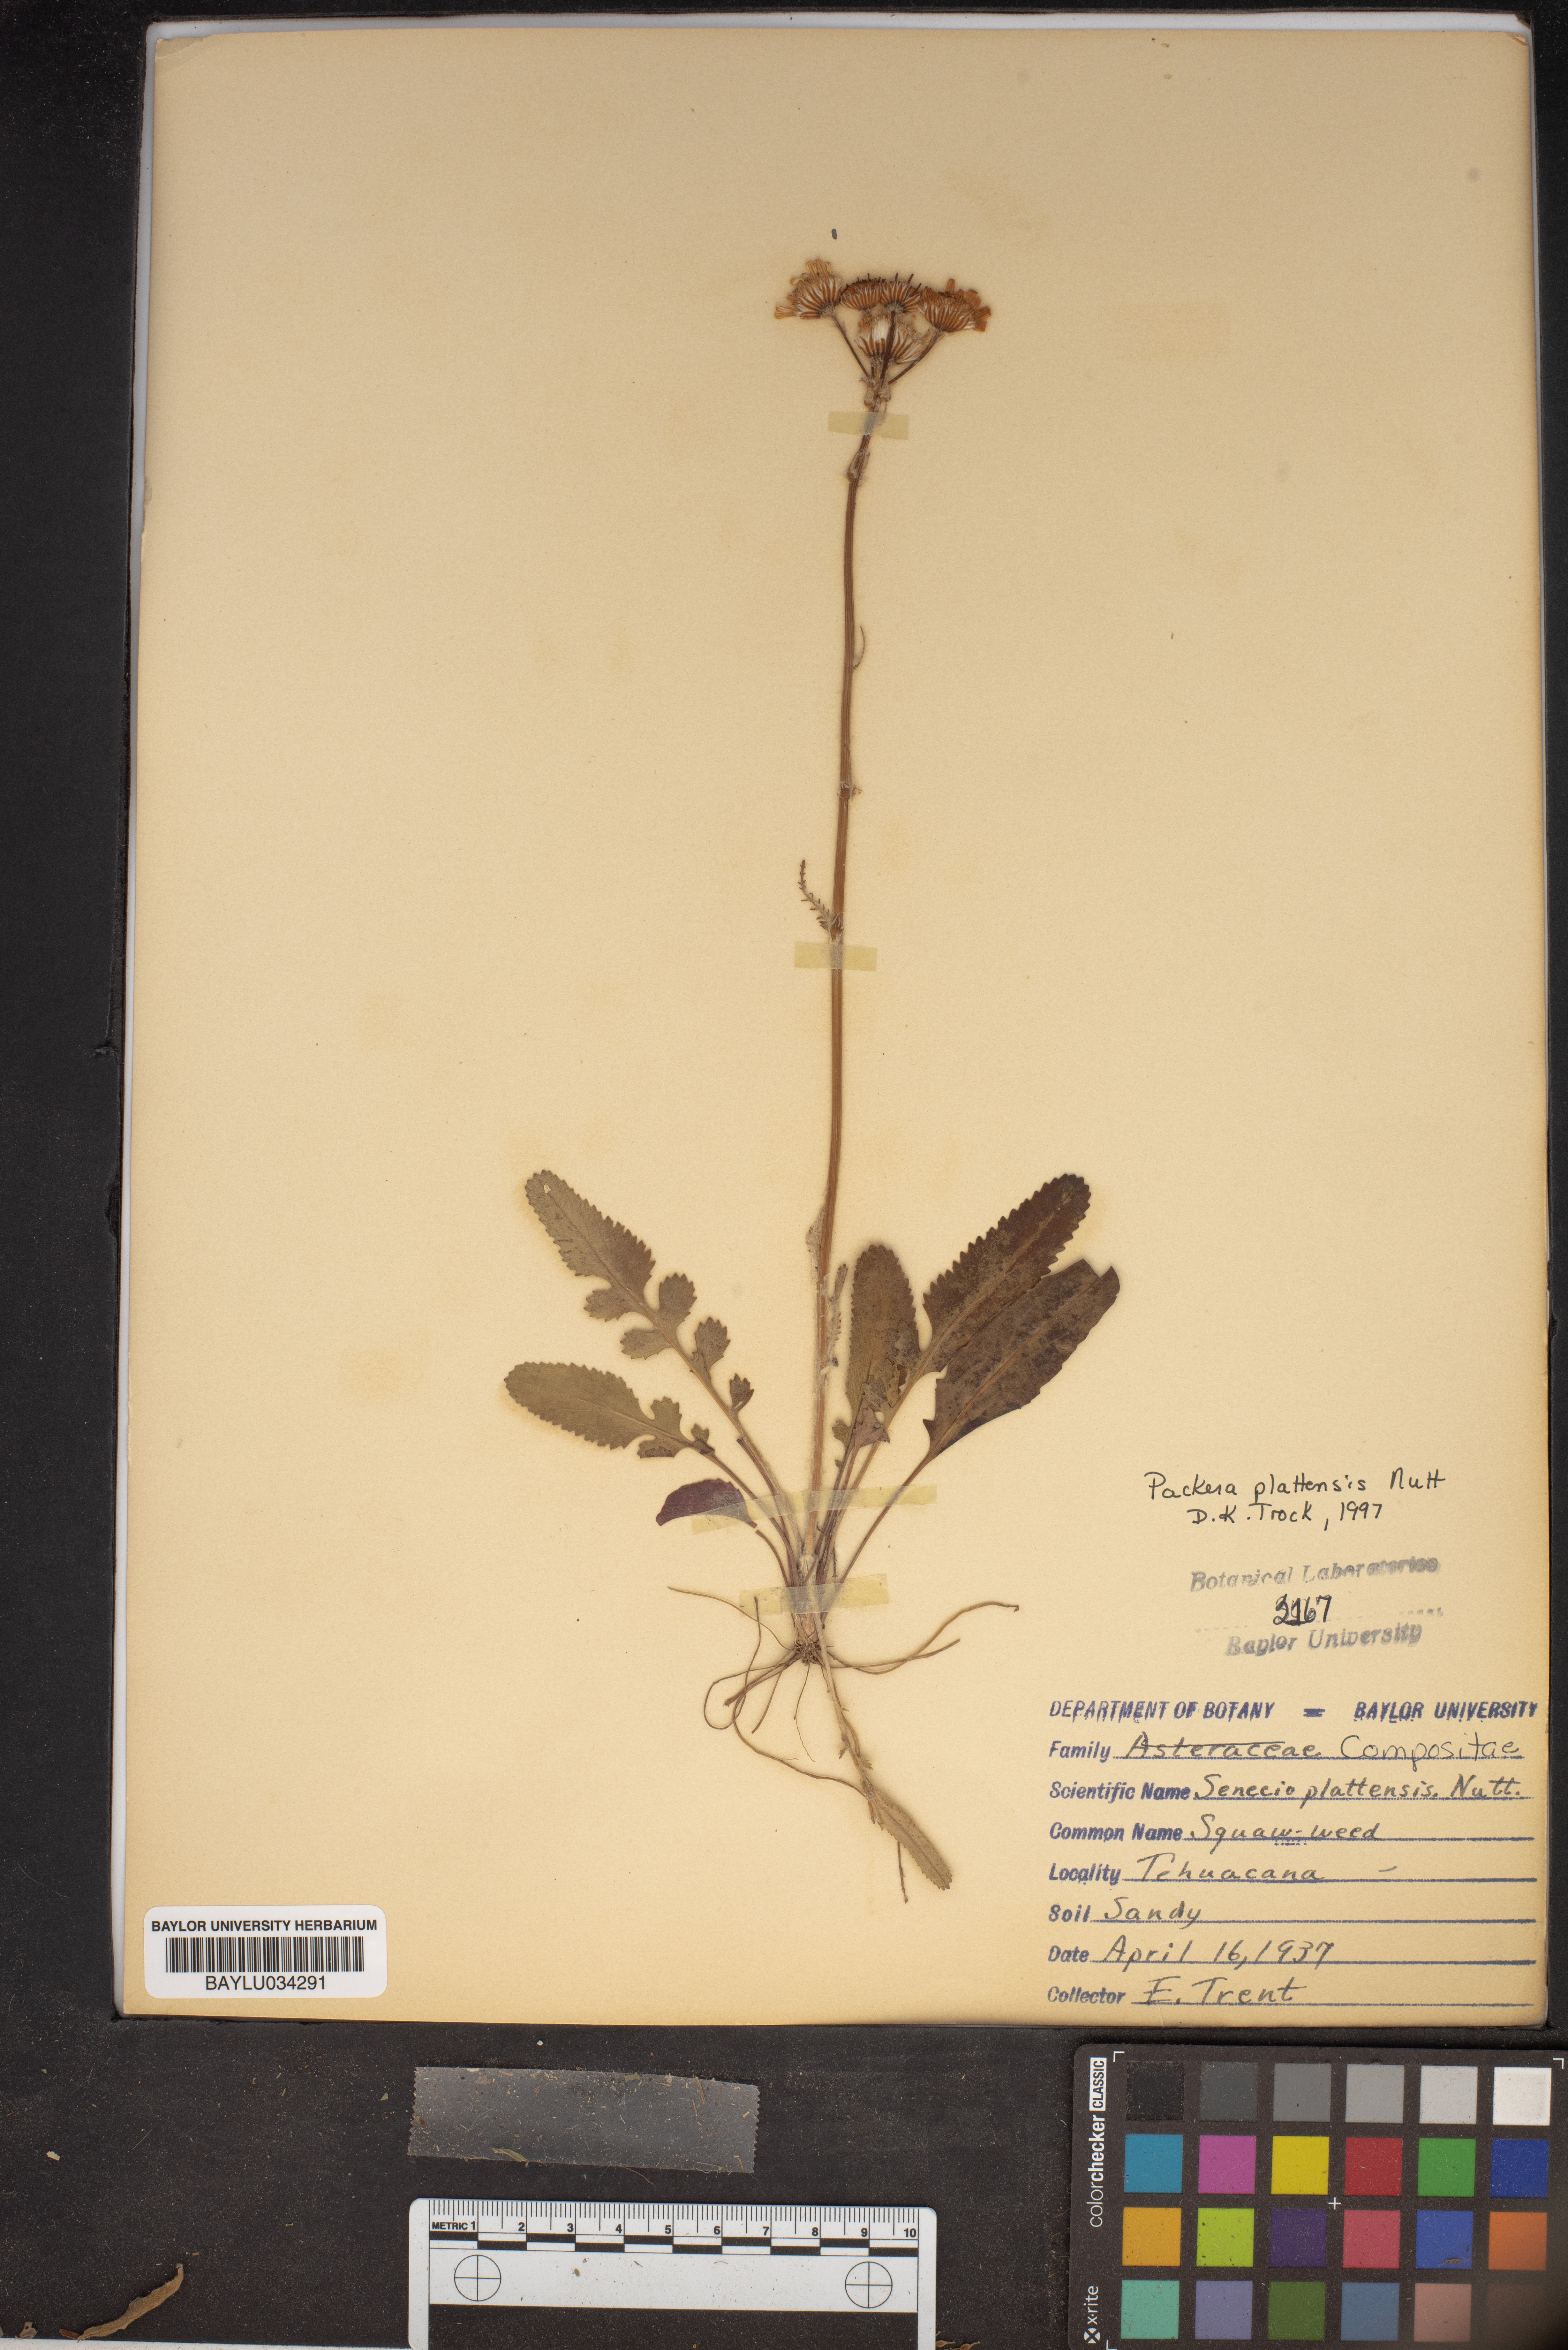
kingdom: Plantae
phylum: Tracheophyta
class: Magnoliopsida
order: Asterales
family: Asteraceae
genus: Packera
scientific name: Packera plattensis
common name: Prairie groundsel
